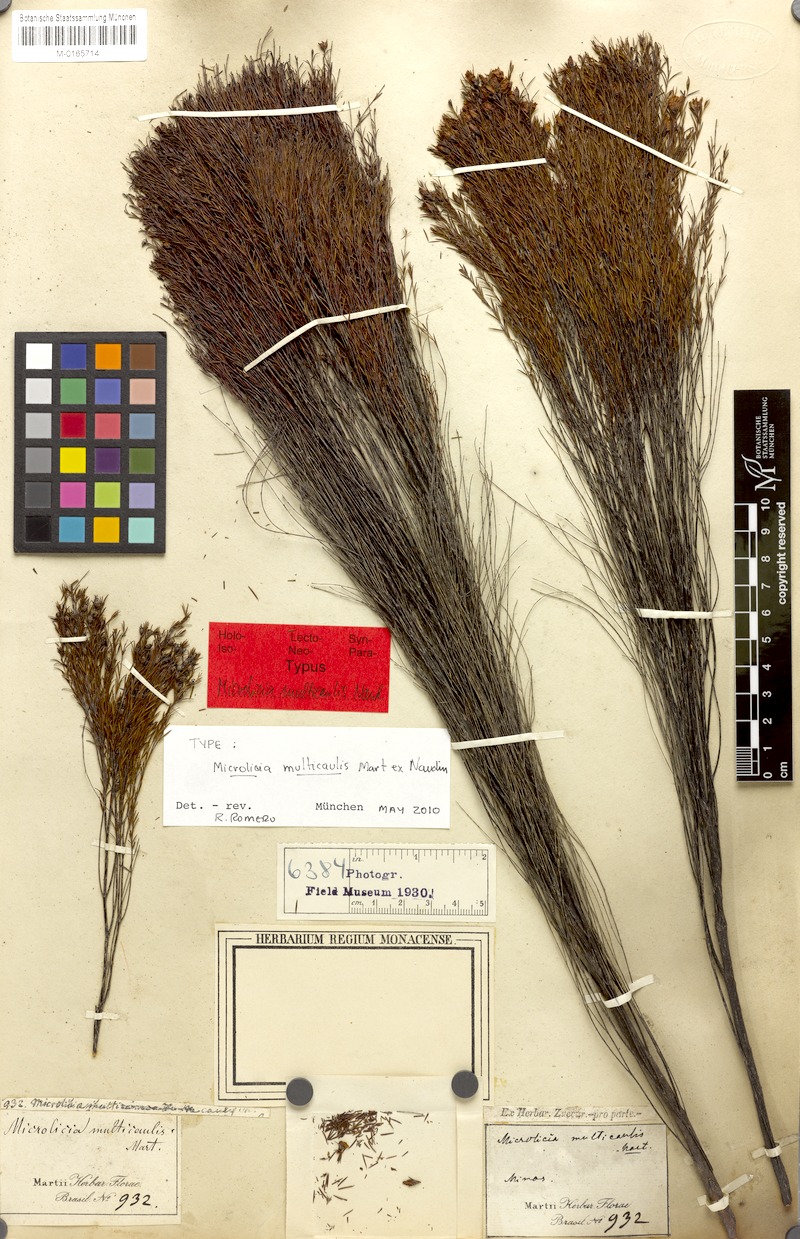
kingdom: Plantae
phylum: Tracheophyta
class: Magnoliopsida
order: Myrtales
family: Melastomataceae
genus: Microlicia
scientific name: Microlicia multicaulis
